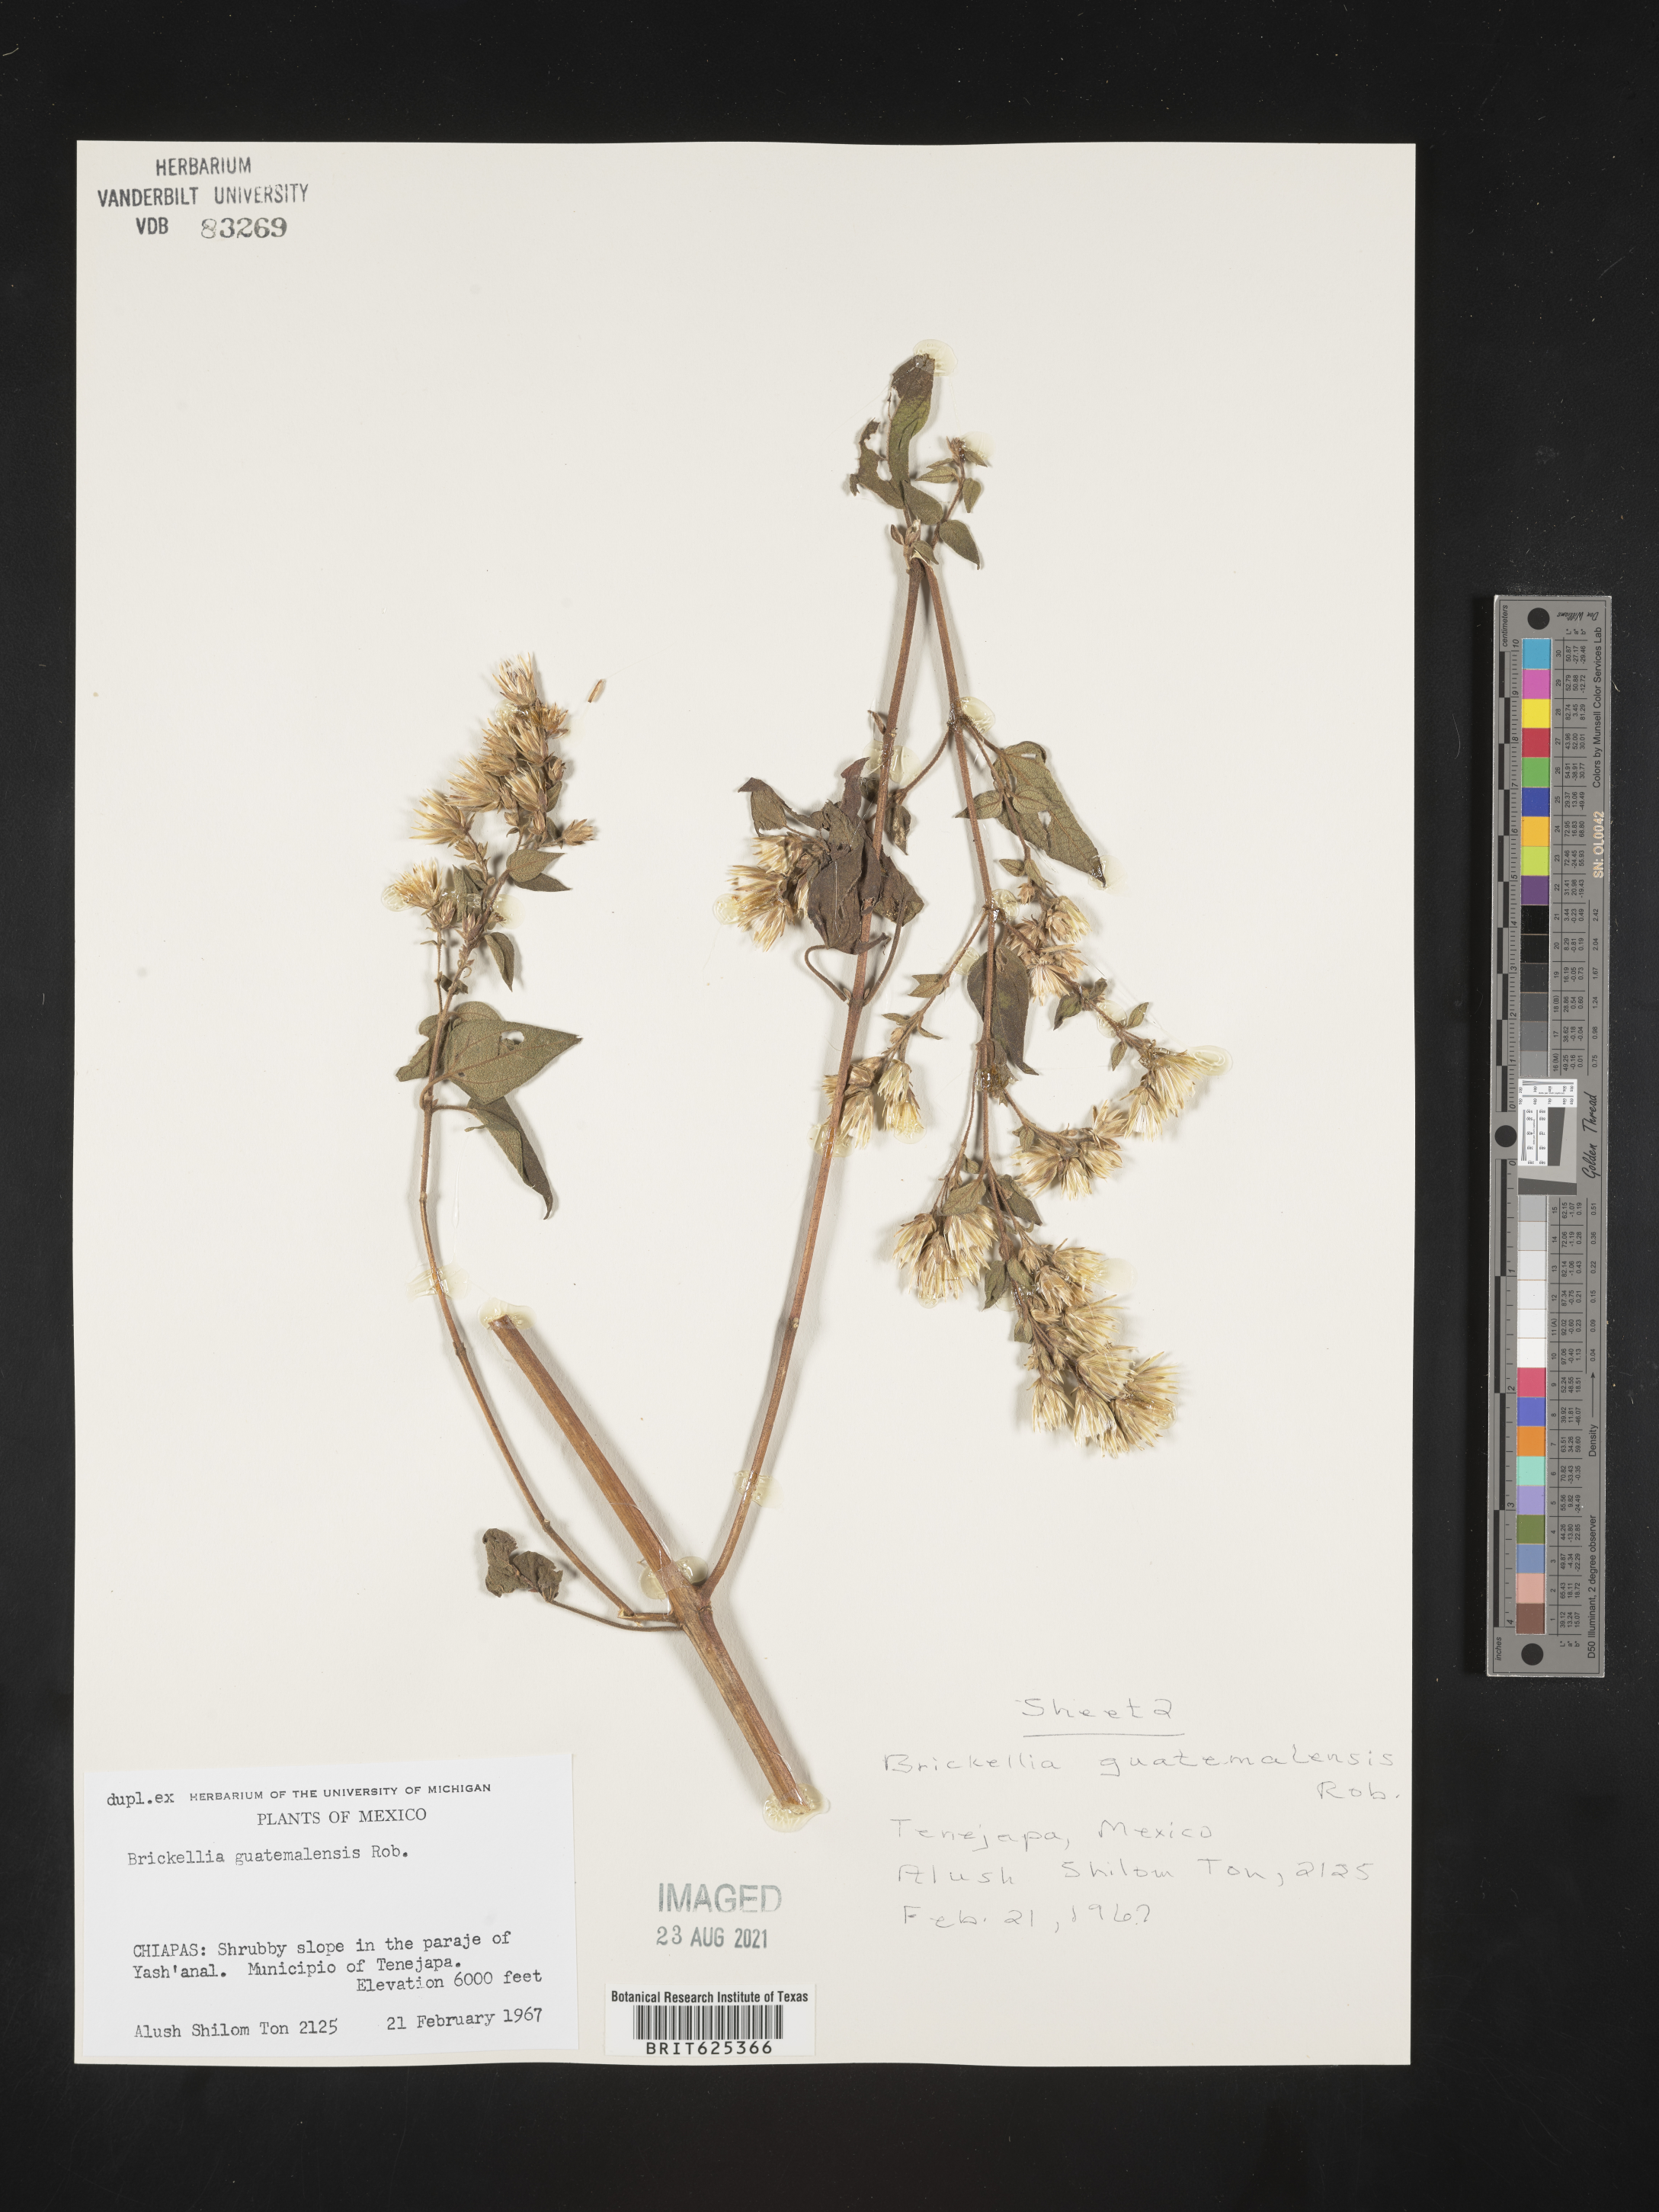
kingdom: Plantae
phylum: Tracheophyta
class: Magnoliopsida
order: Asterales
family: Asteraceae
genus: Brickellia
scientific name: Brickellia
